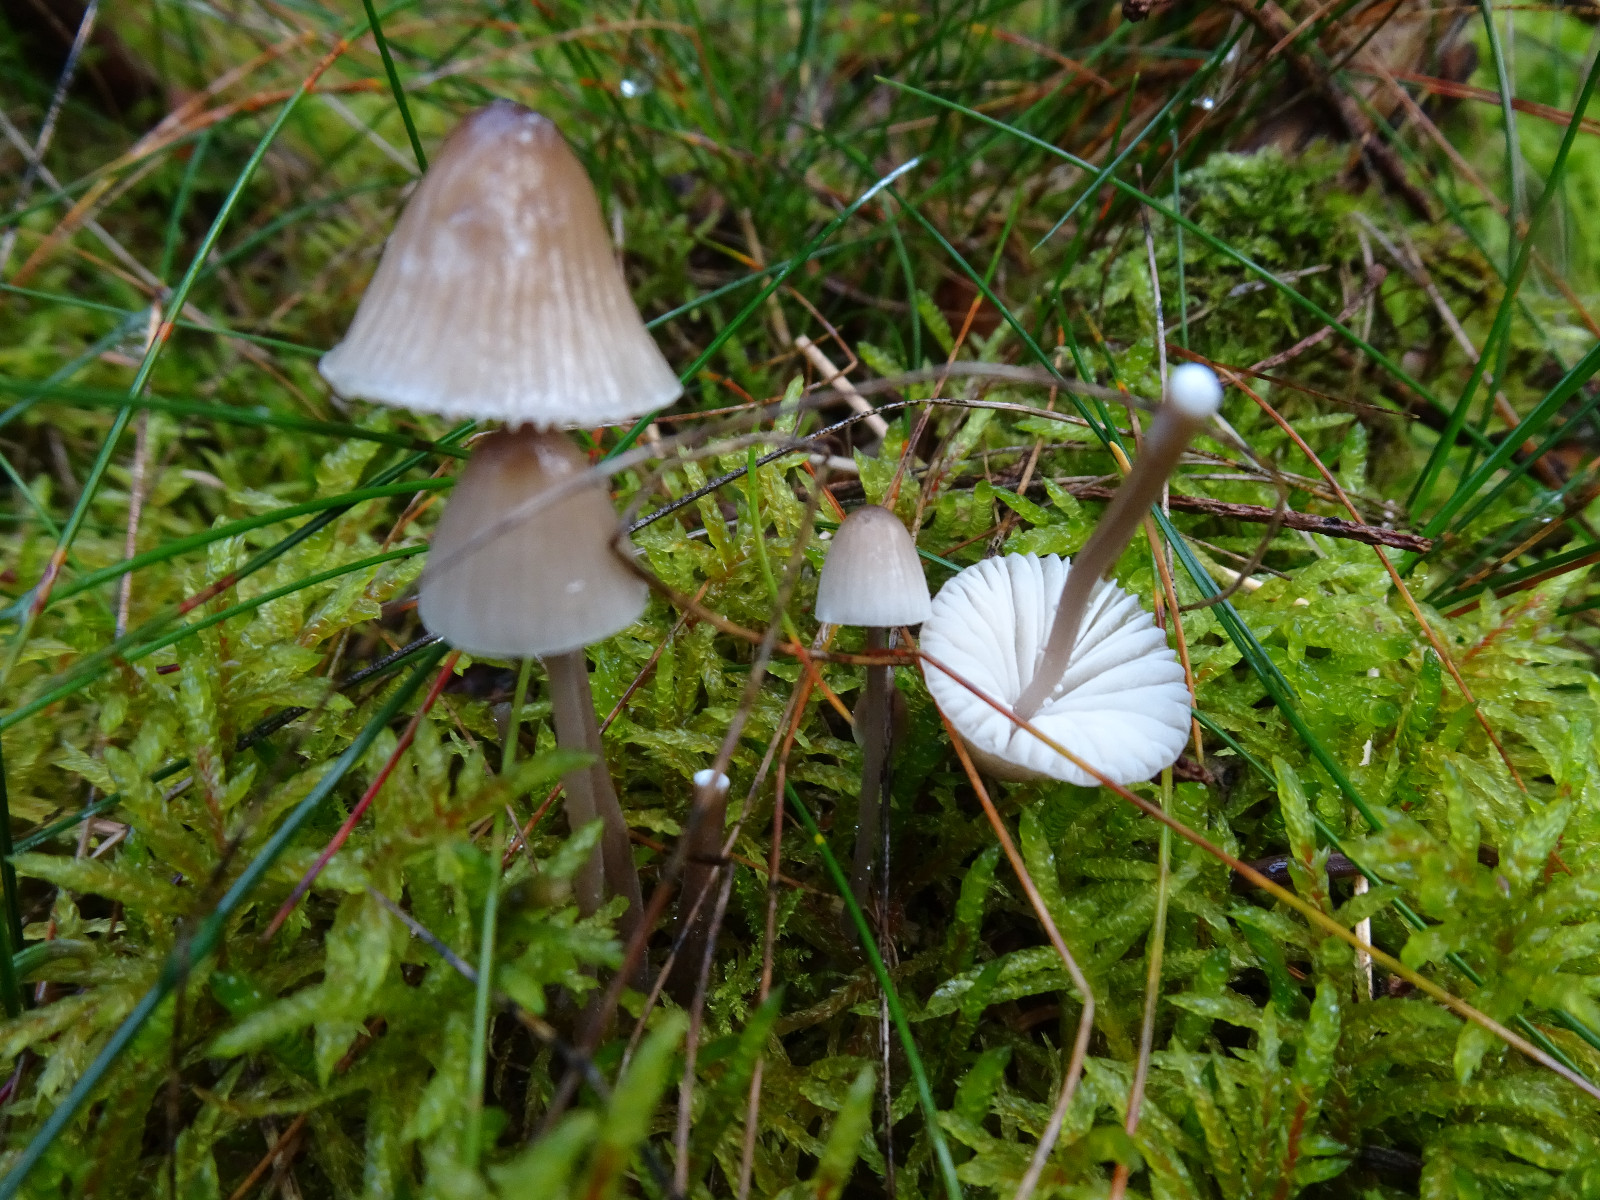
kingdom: Fungi
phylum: Basidiomycota
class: Agaricomycetes
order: Agaricales
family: Mycenaceae
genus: Mycena
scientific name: Mycena galopus
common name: hvidmælket huesvamp
